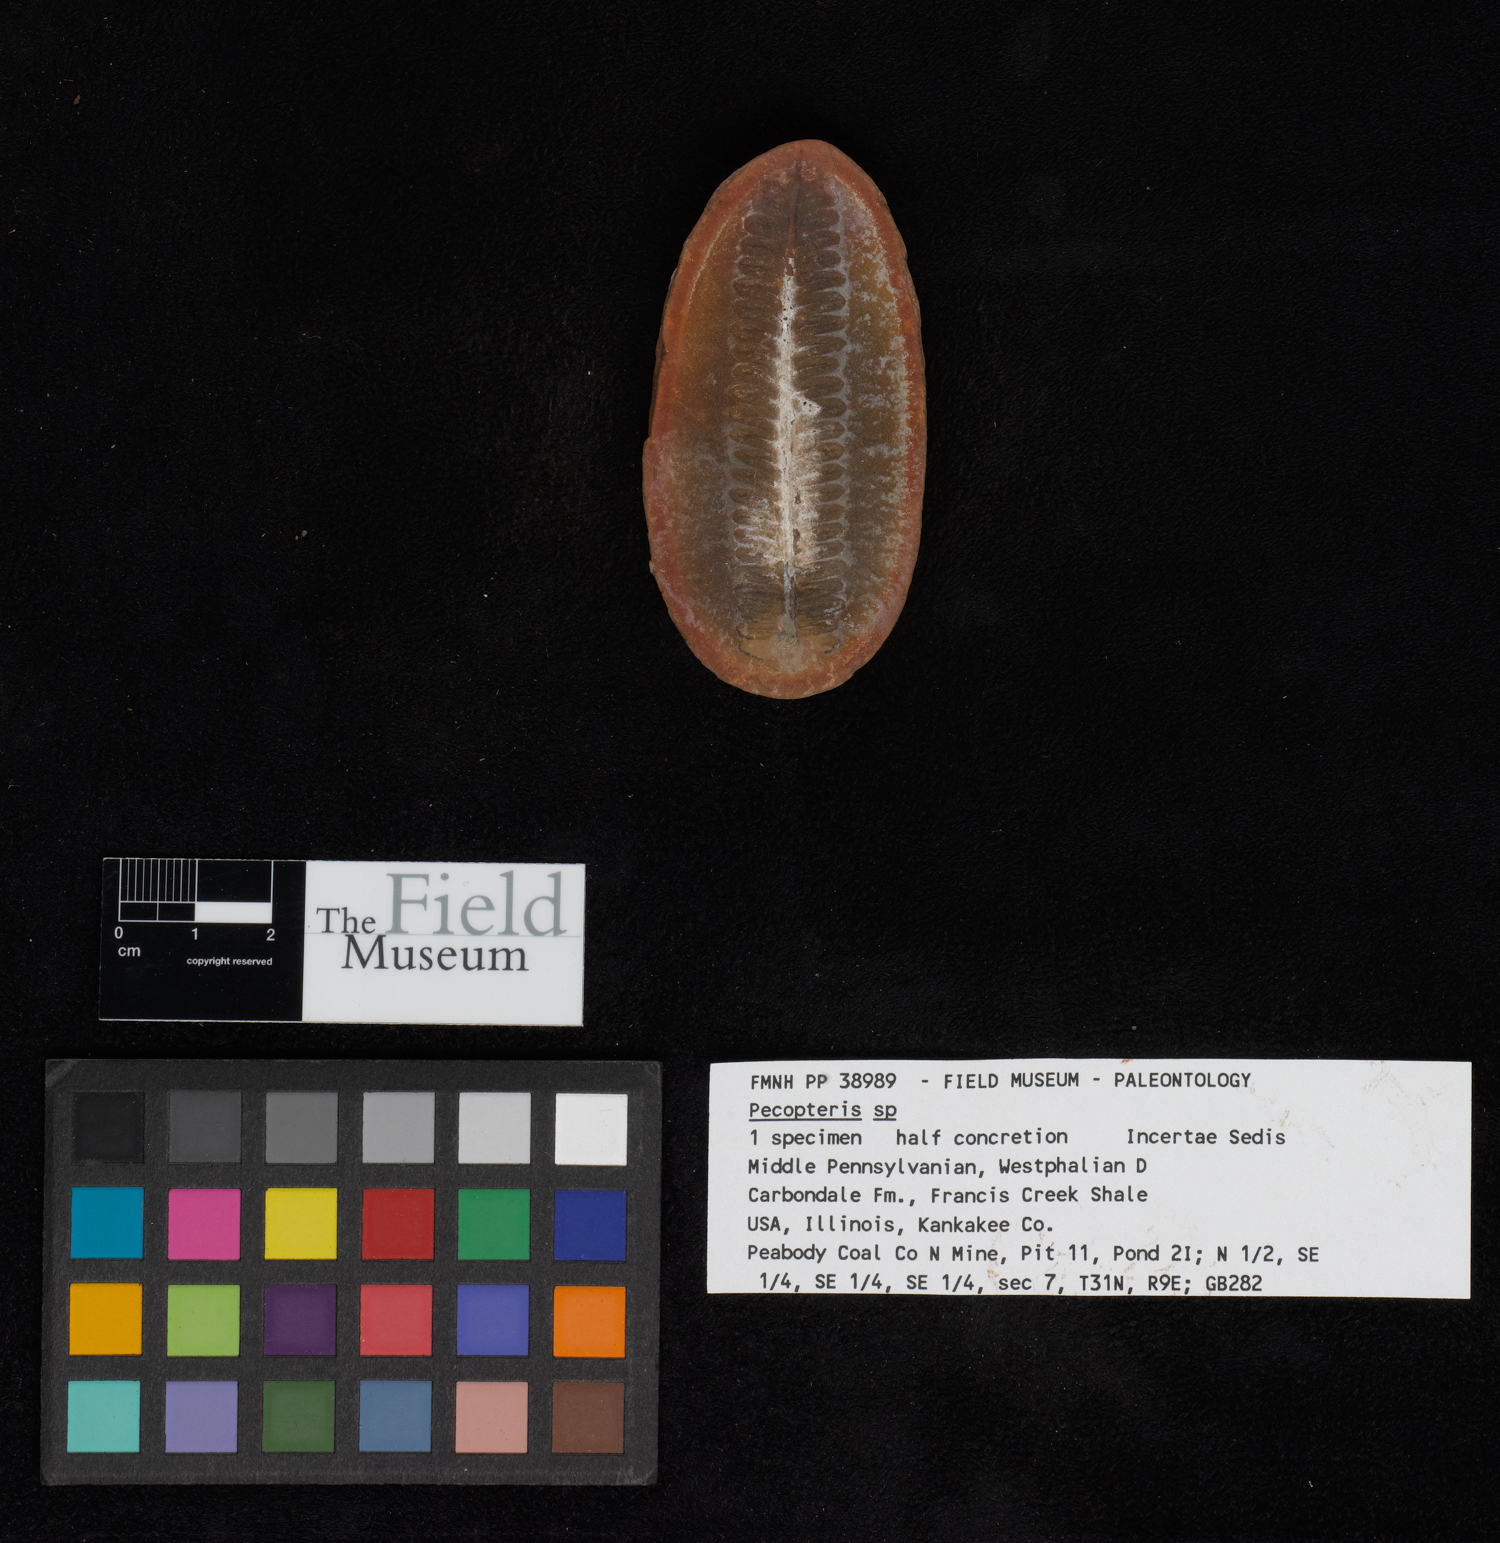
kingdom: Plantae
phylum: Tracheophyta
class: Polypodiopsida
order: Marattiales
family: Asterothecaceae
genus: Pecopteris
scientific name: Pecopteris
